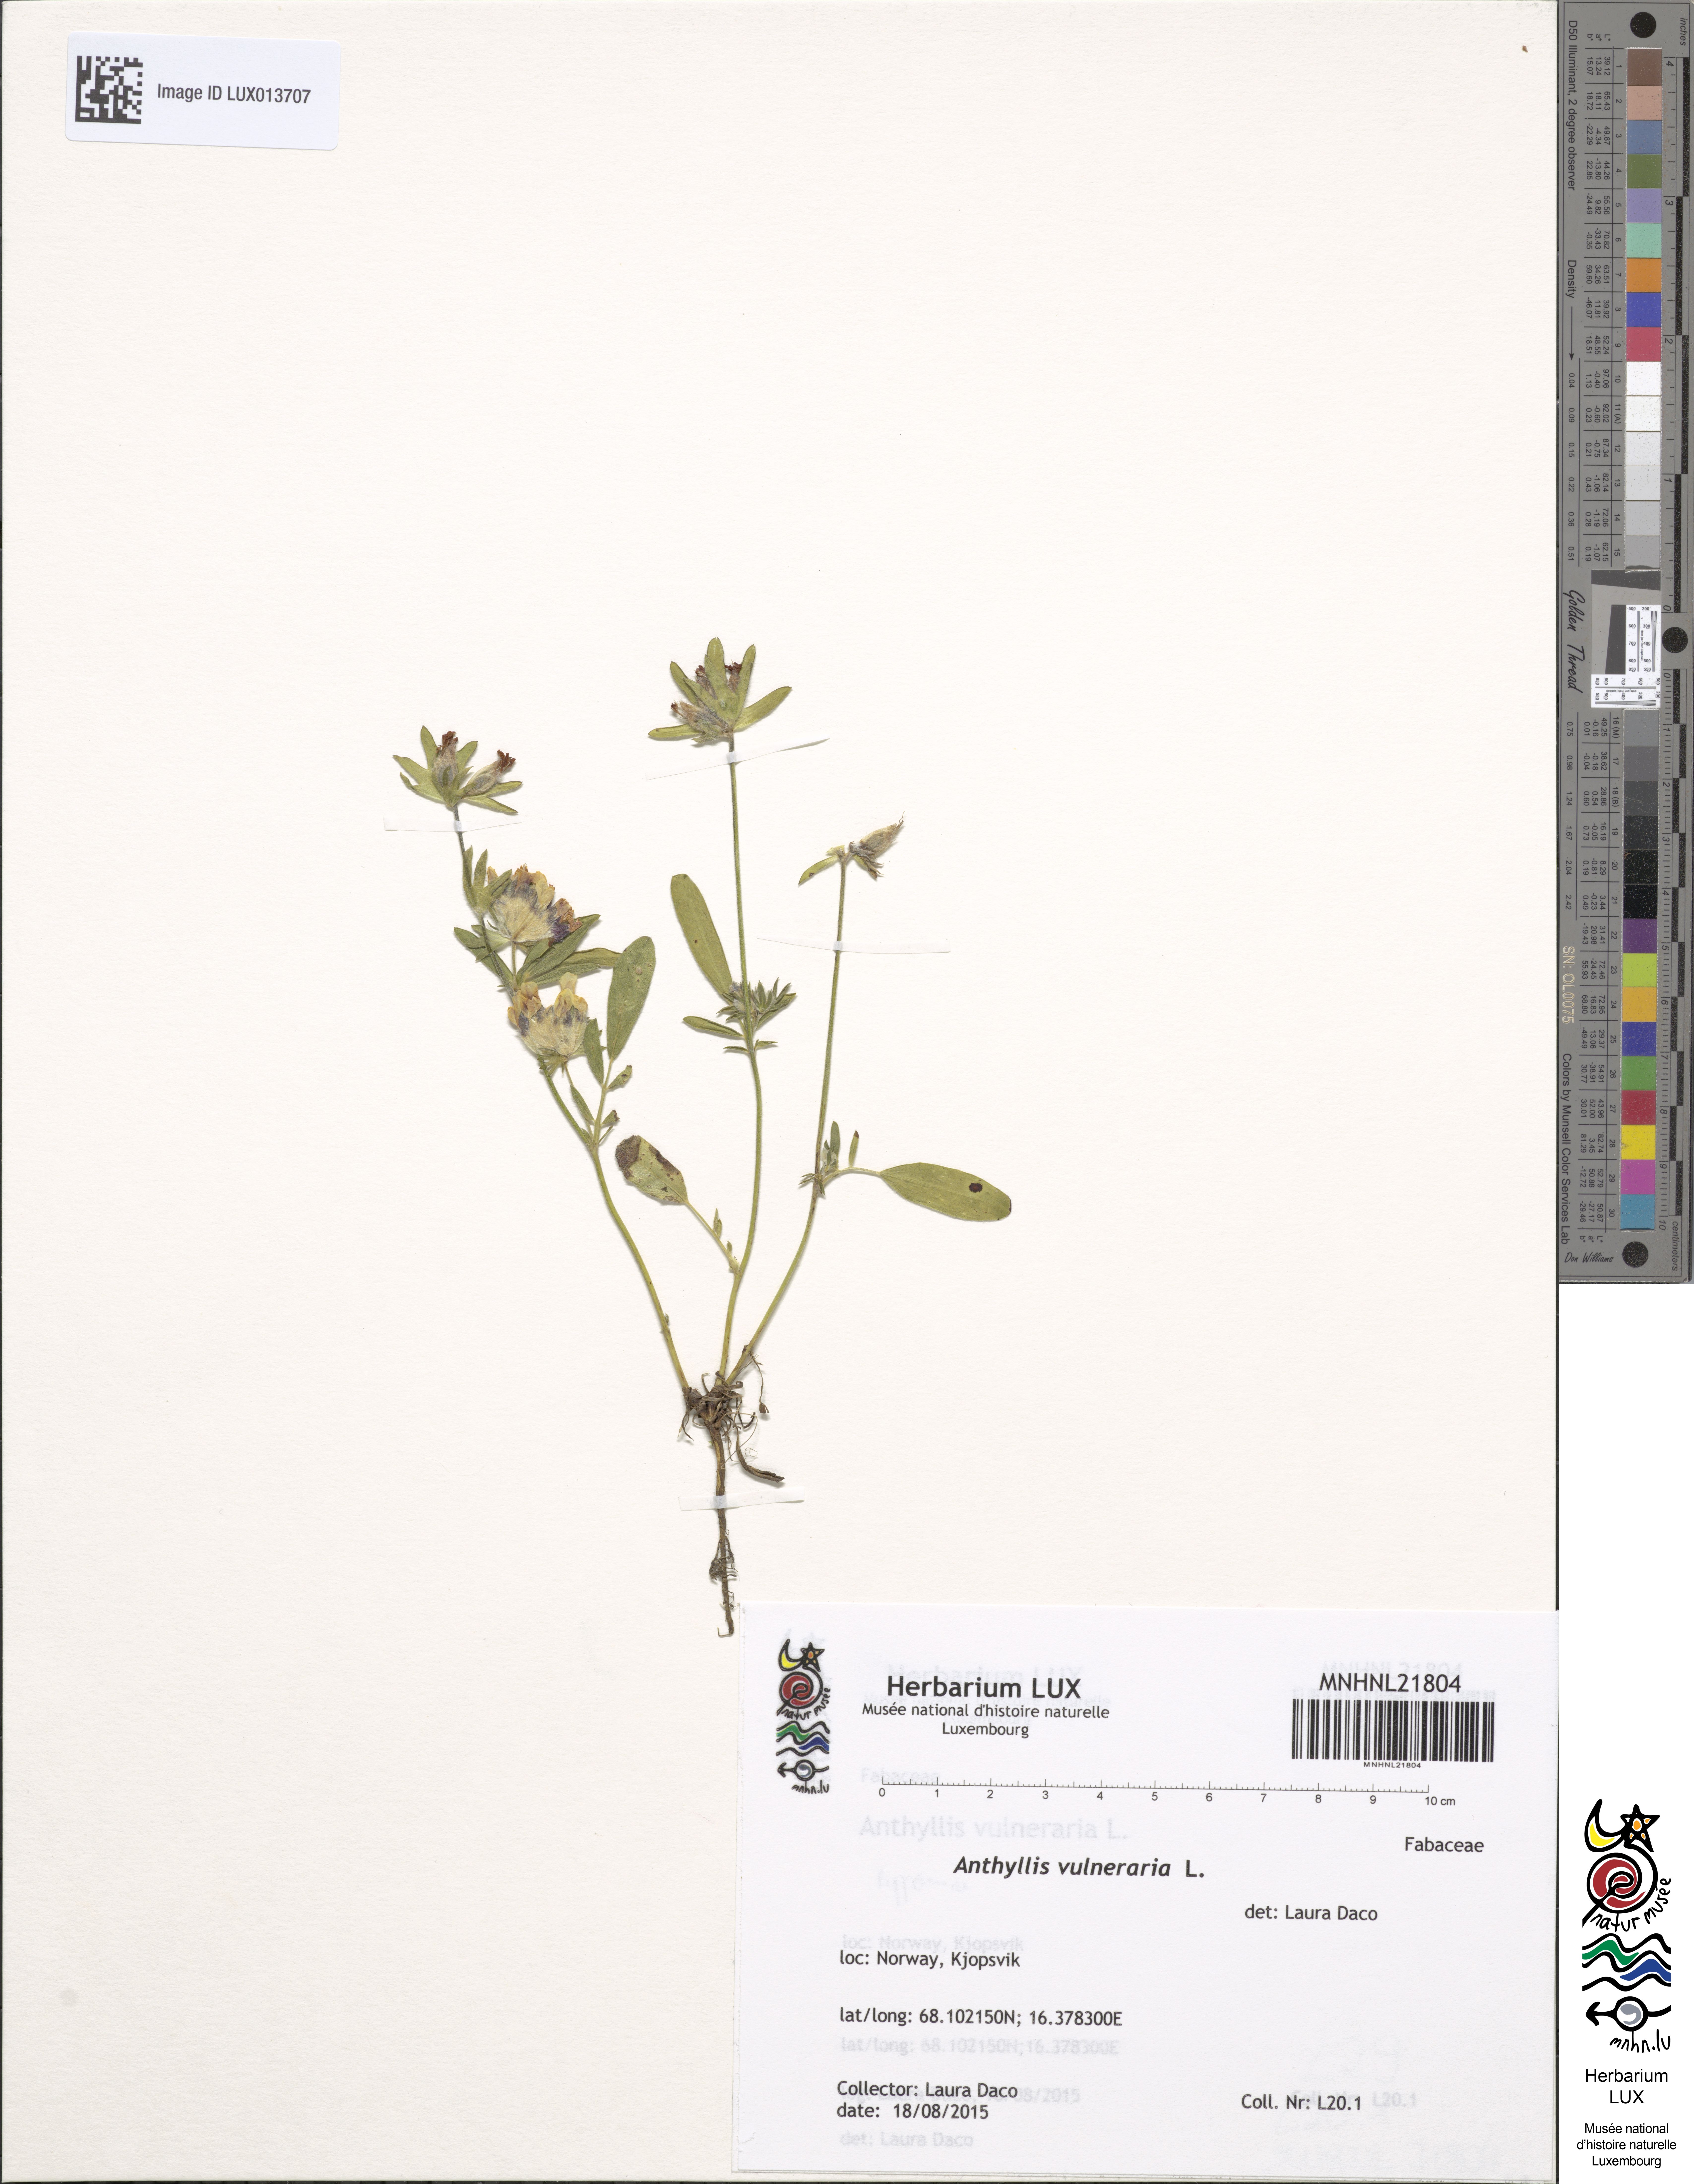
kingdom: Plantae
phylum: Tracheophyta
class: Magnoliopsida
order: Fabales
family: Fabaceae
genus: Anthyllis
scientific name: Anthyllis vulneraria
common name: Kidney vetch
